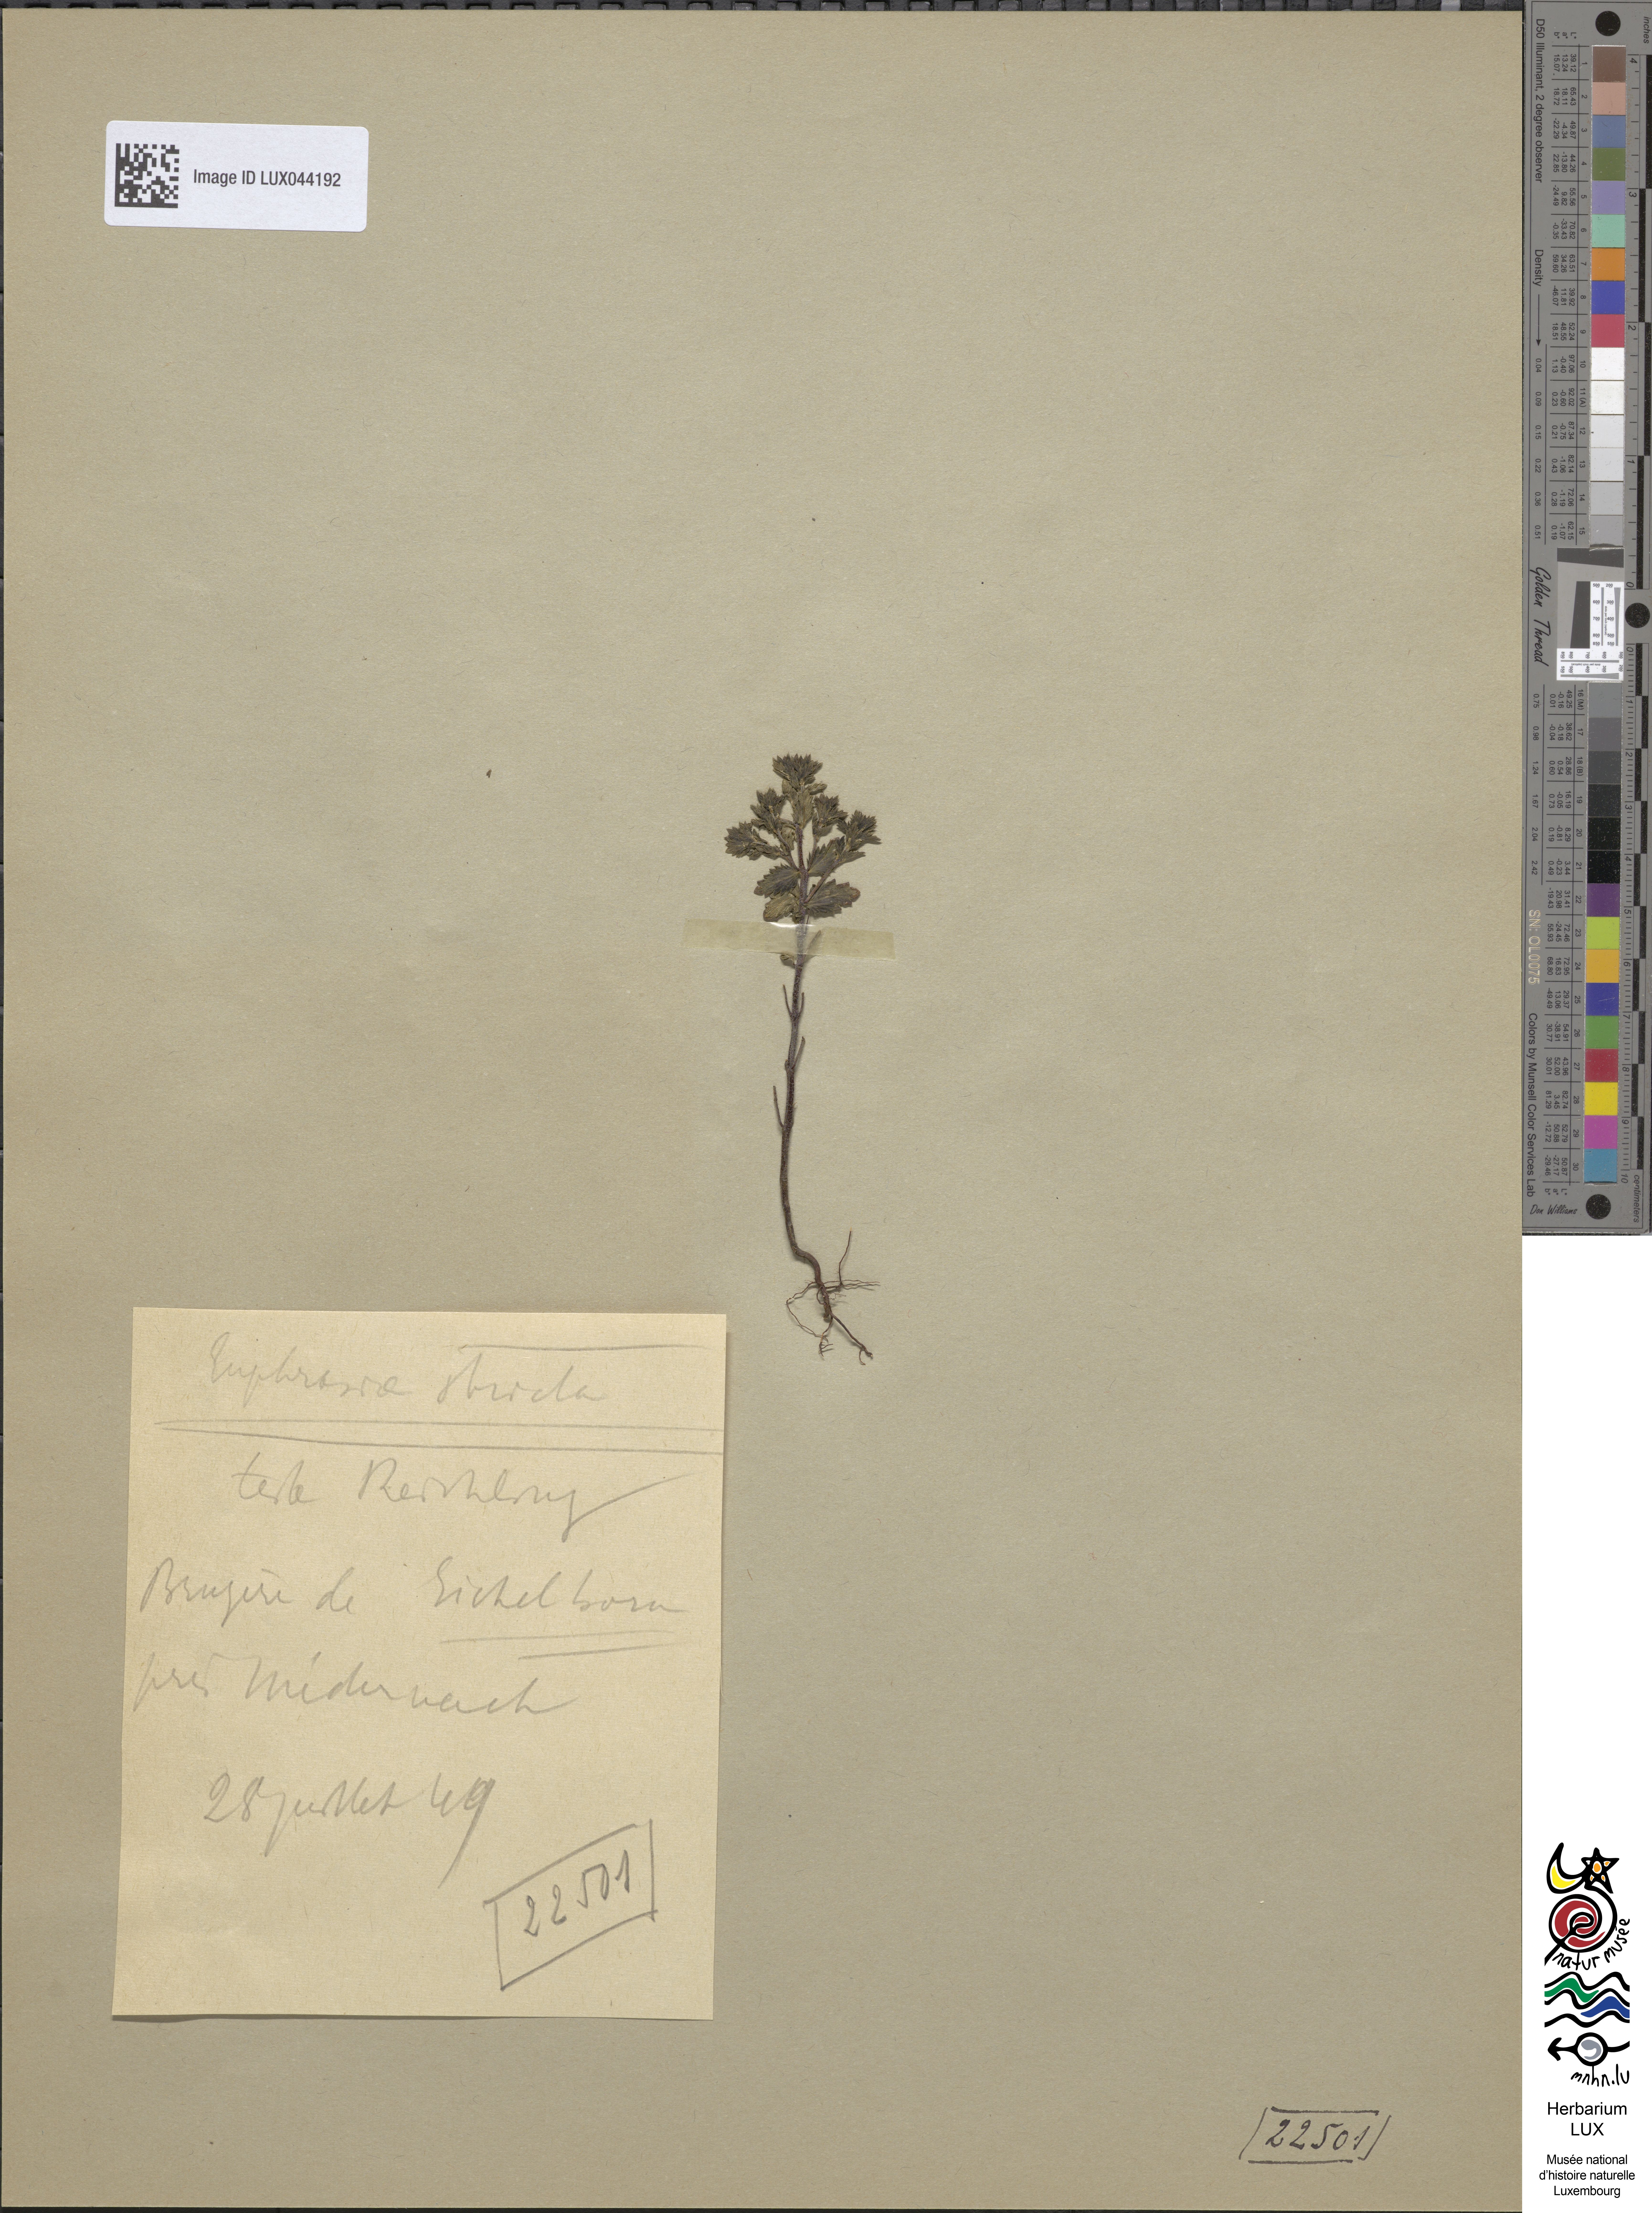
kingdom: Plantae
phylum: Tracheophyta
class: Magnoliopsida
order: Lamiales
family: Orobanchaceae
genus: Euphrasia
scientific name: Euphrasia stricta
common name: Drug eyebright
